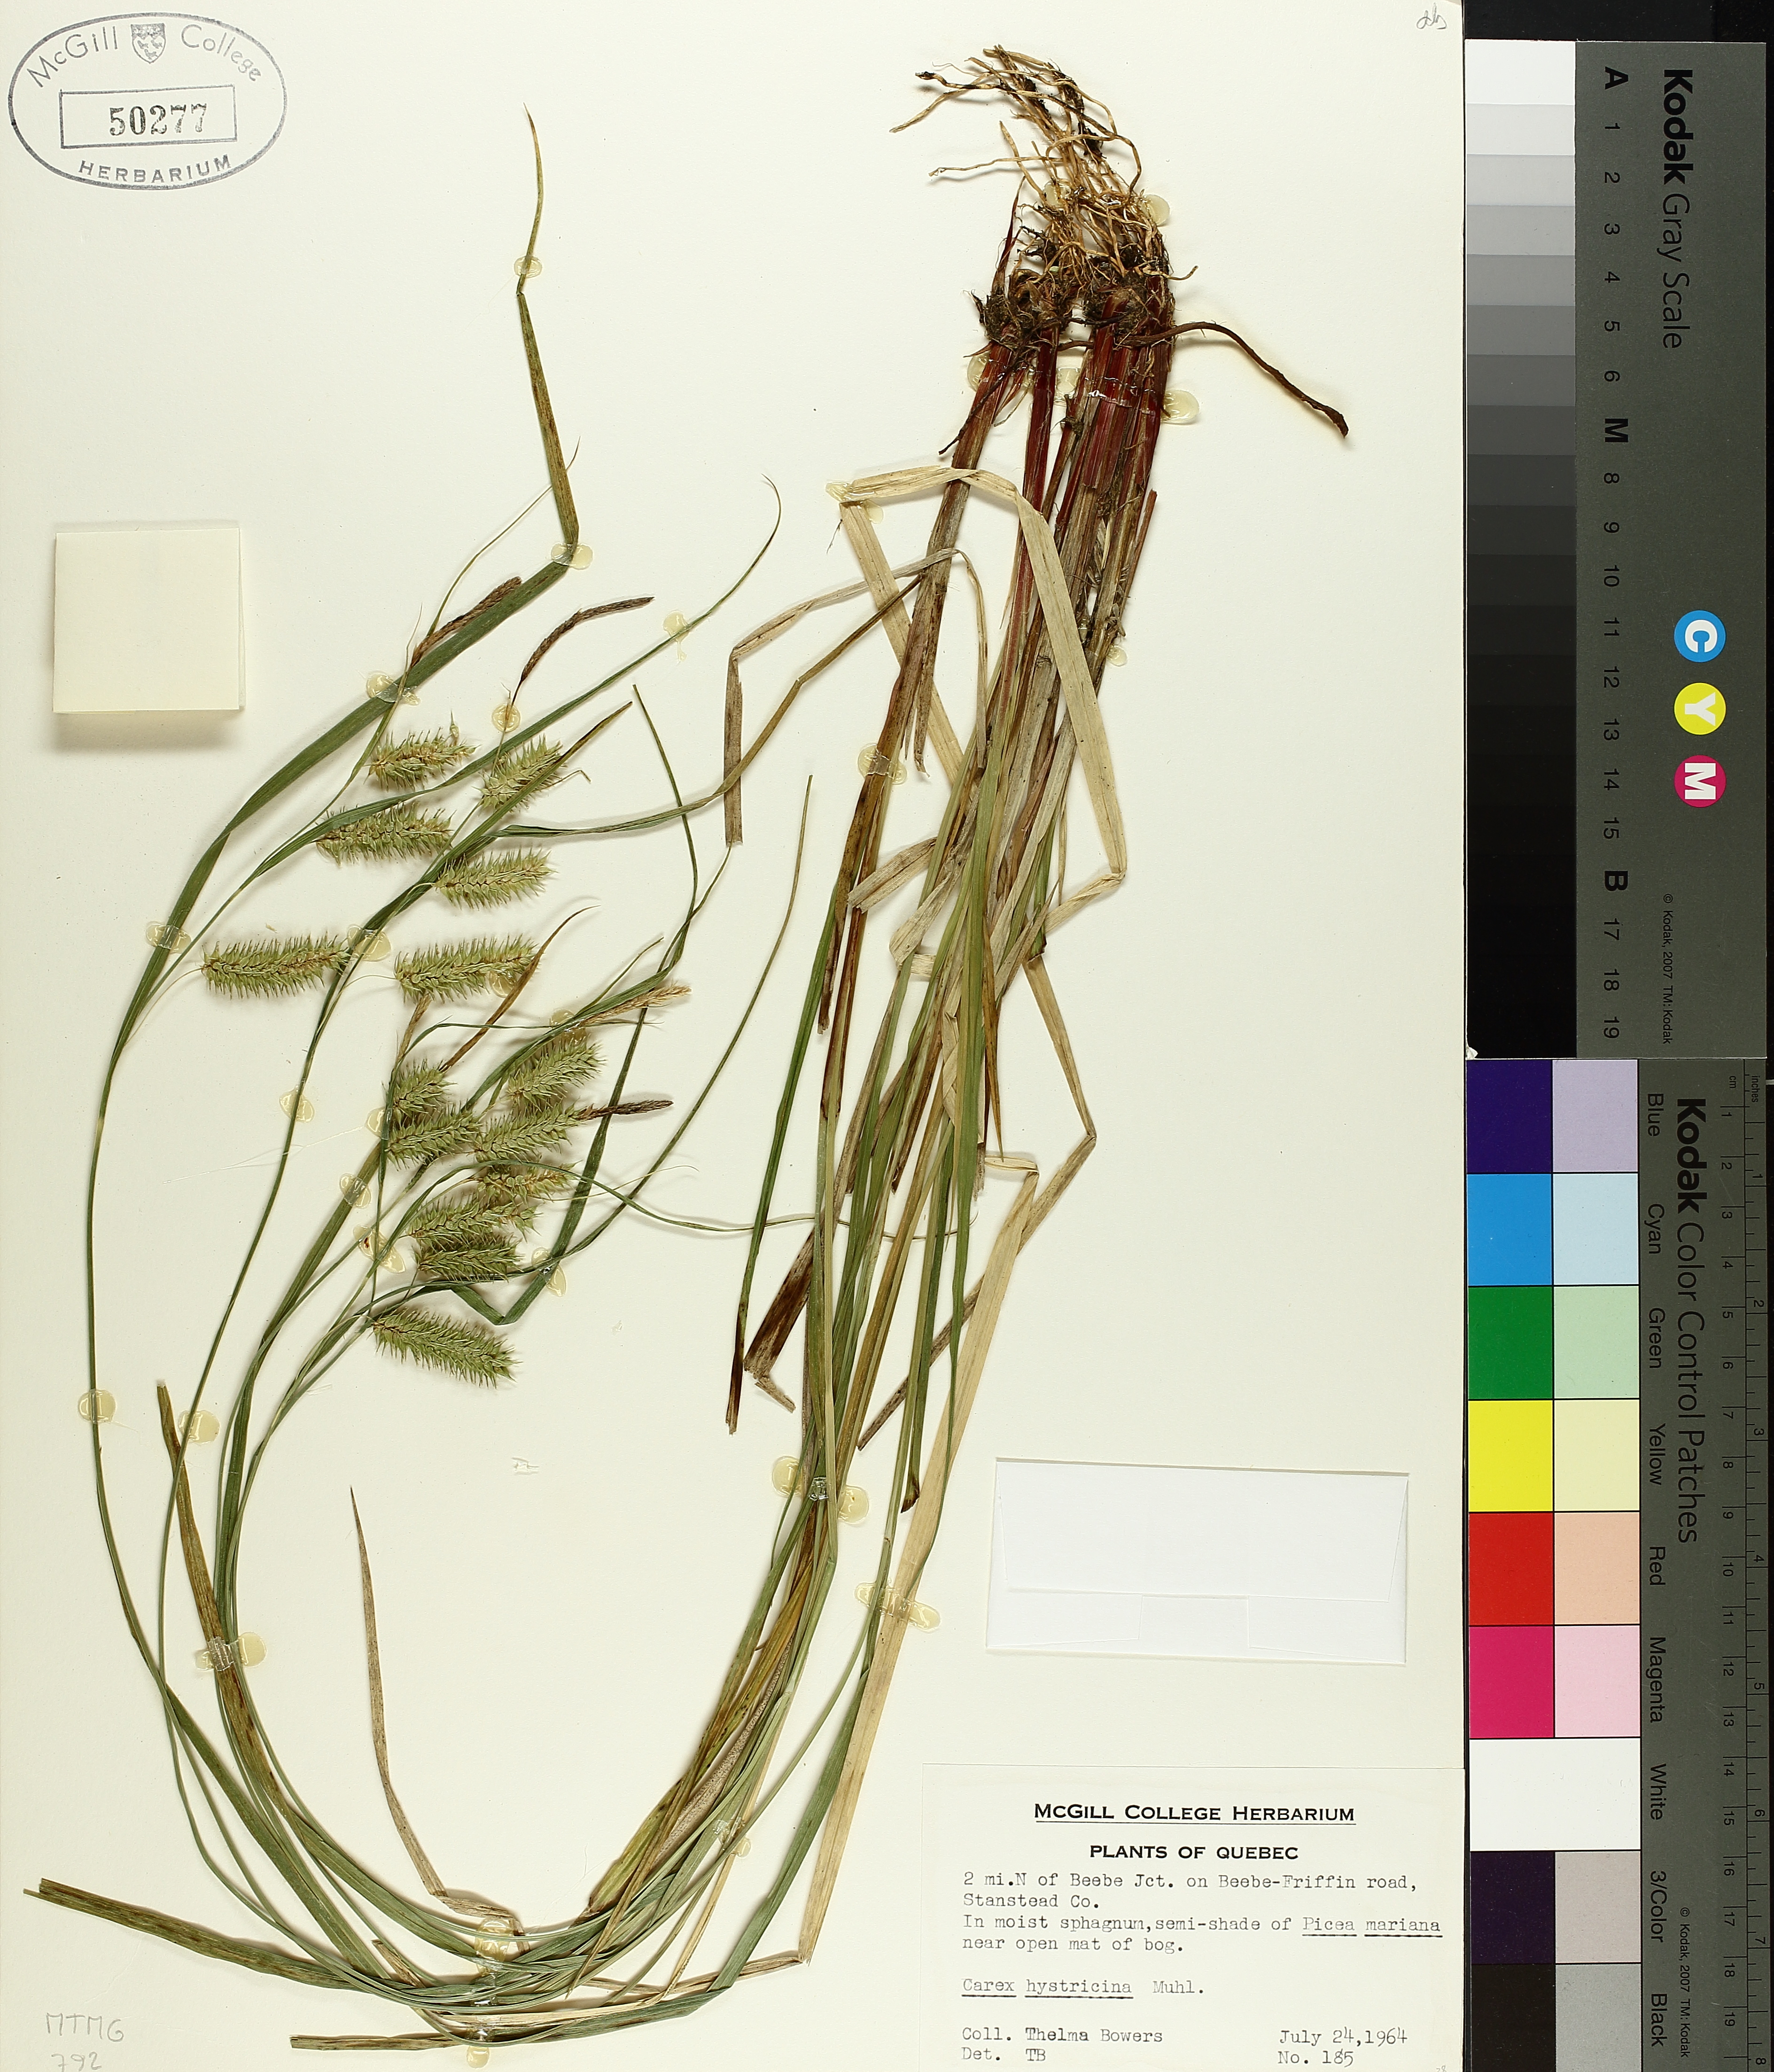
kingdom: Plantae
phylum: Tracheophyta
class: Liliopsida
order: Poales
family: Cyperaceae
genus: Carex
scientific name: Carex hystericina
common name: Bottlebrush sedge
